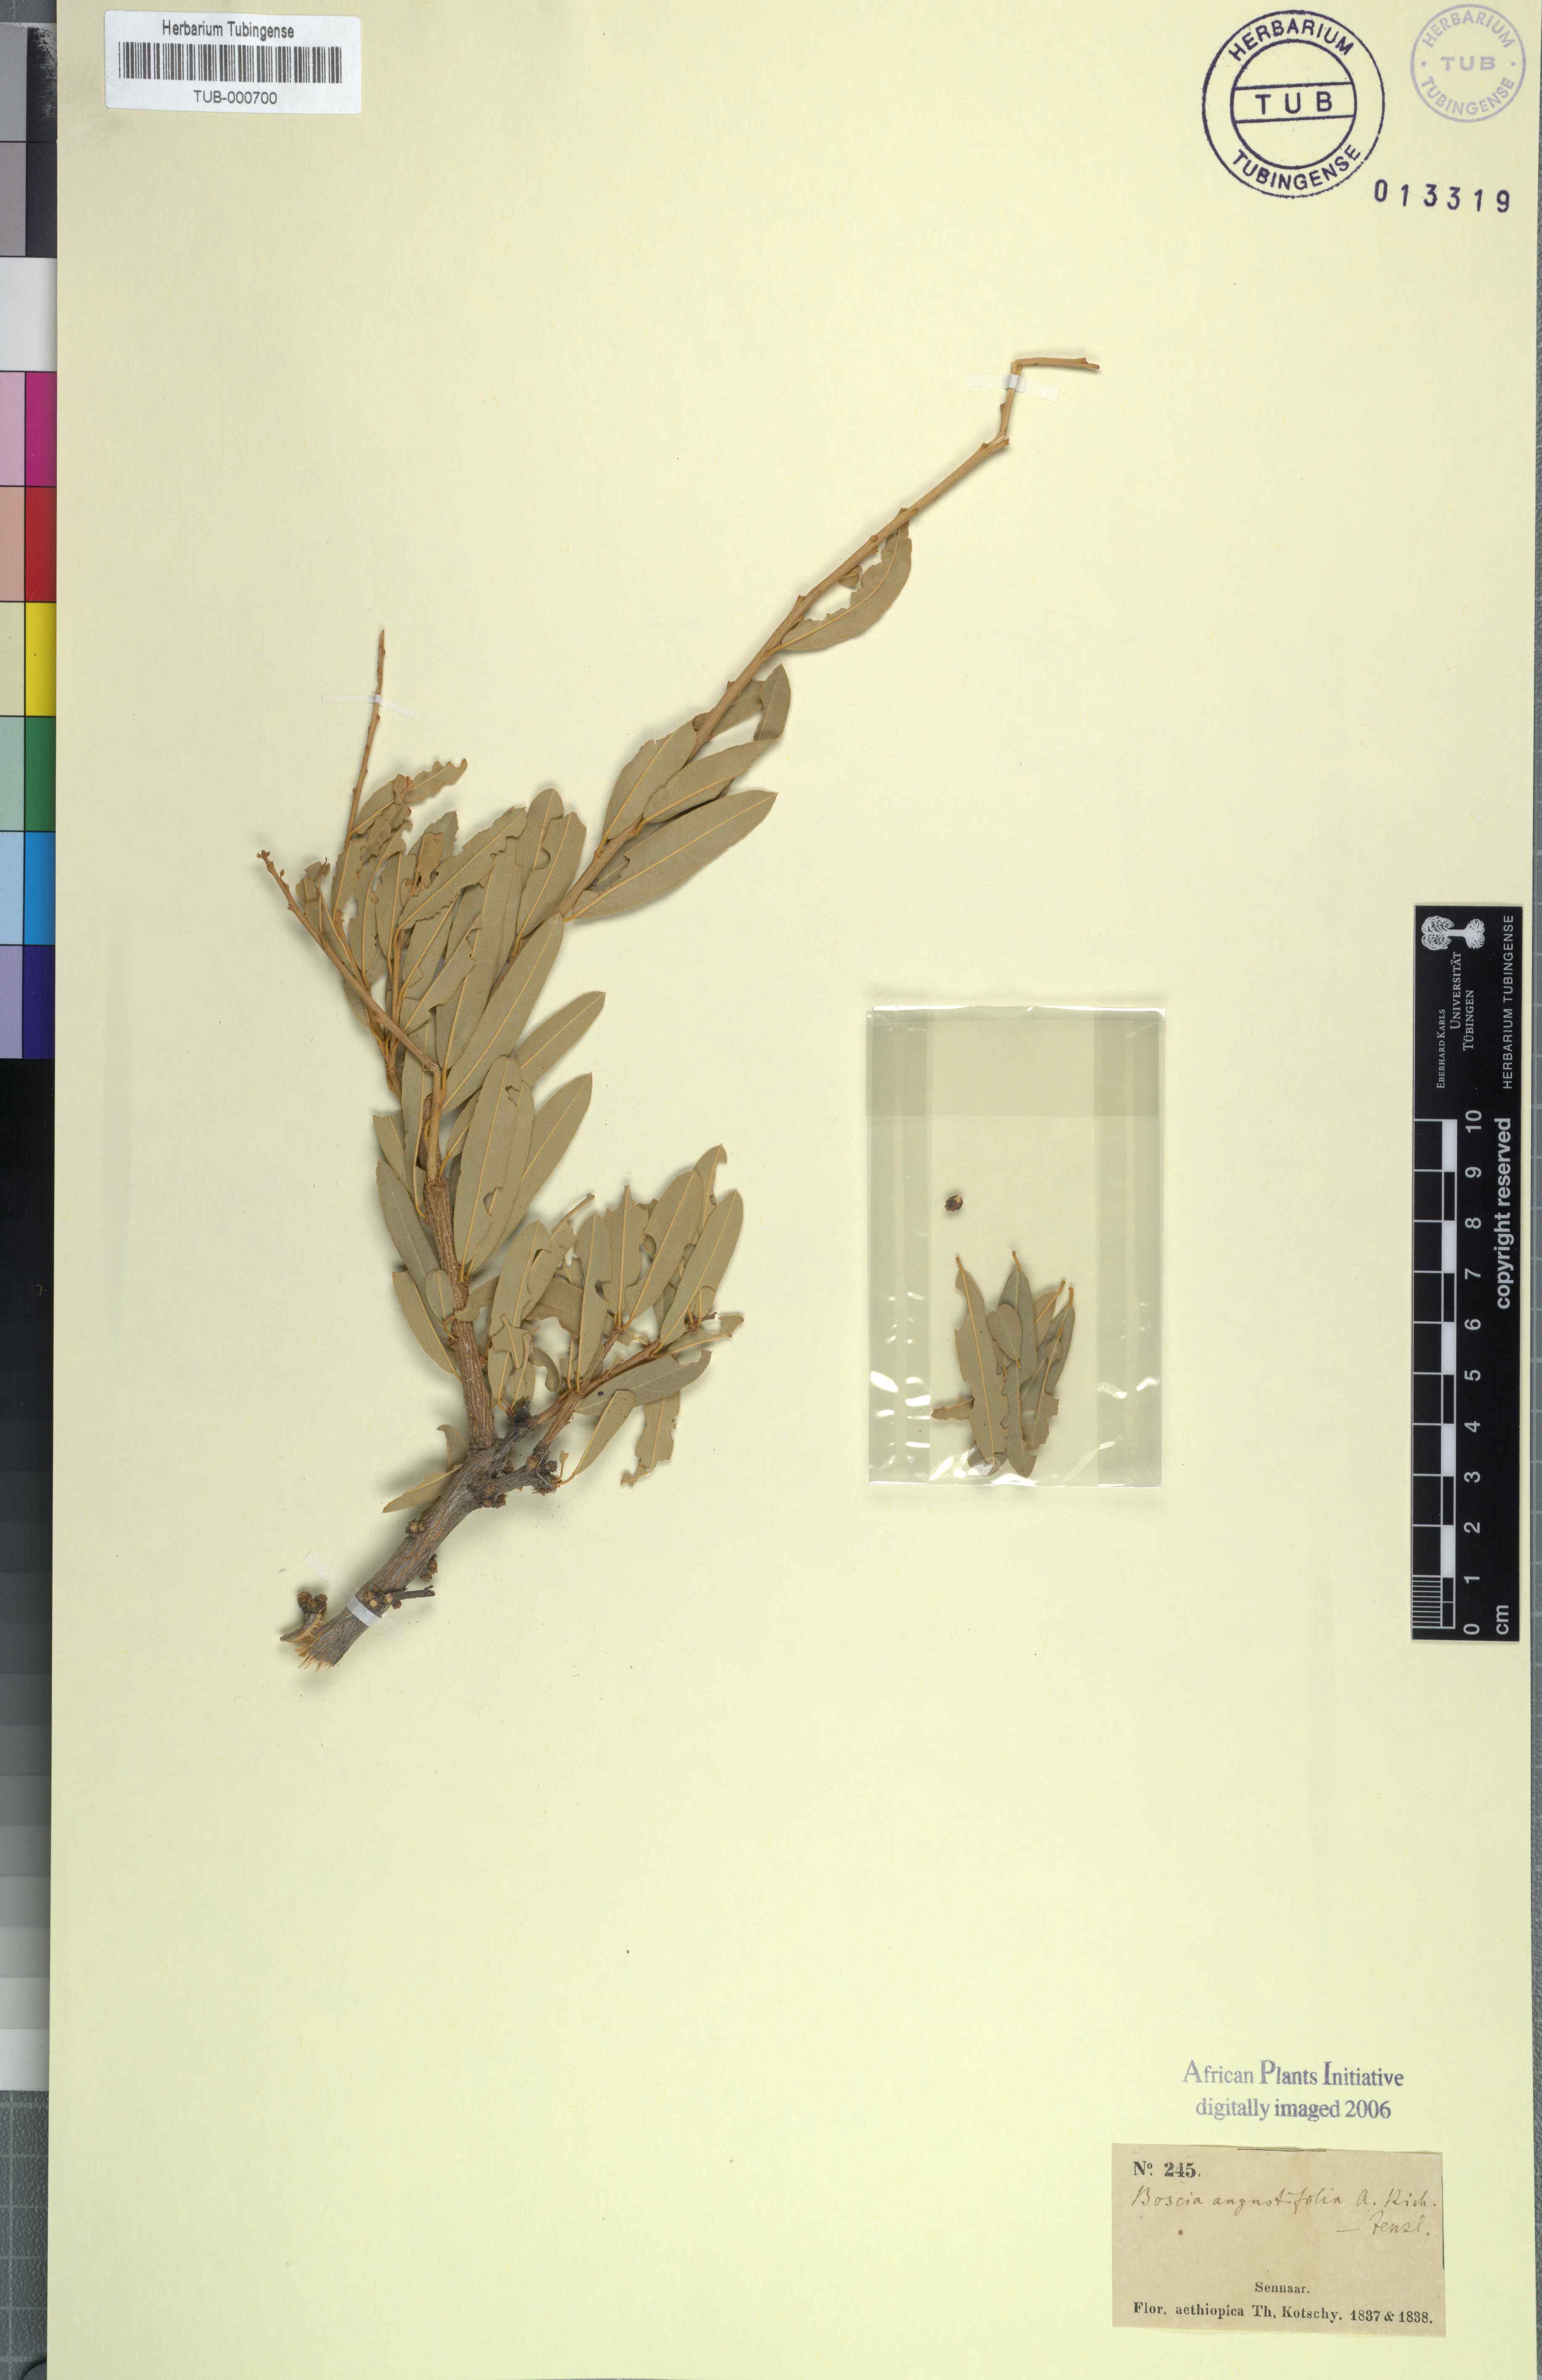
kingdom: Plantae
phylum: Tracheophyta
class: Magnoliopsida
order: Brassicales
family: Capparaceae
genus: Boscia
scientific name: Boscia angustifolia
